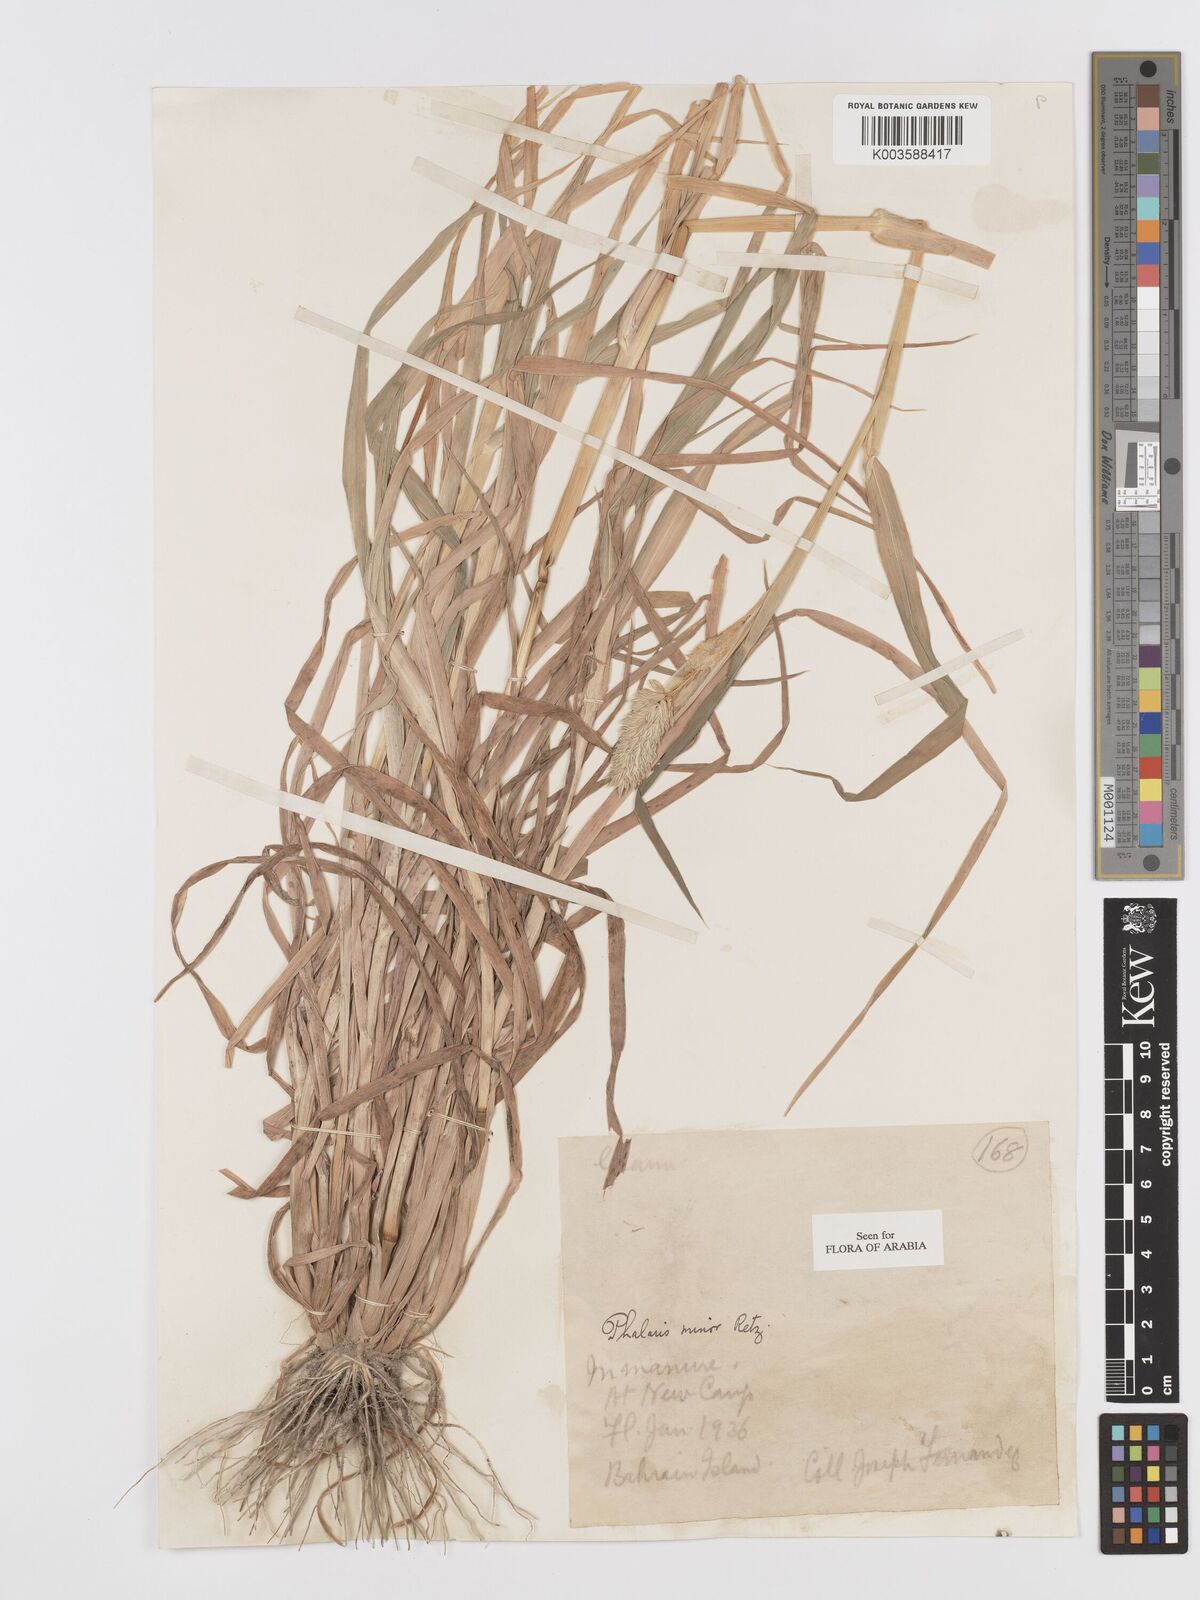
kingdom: Plantae
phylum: Tracheophyta
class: Liliopsida
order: Poales
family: Poaceae
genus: Phalaris
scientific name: Phalaris minor
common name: Littleseed canarygrass
